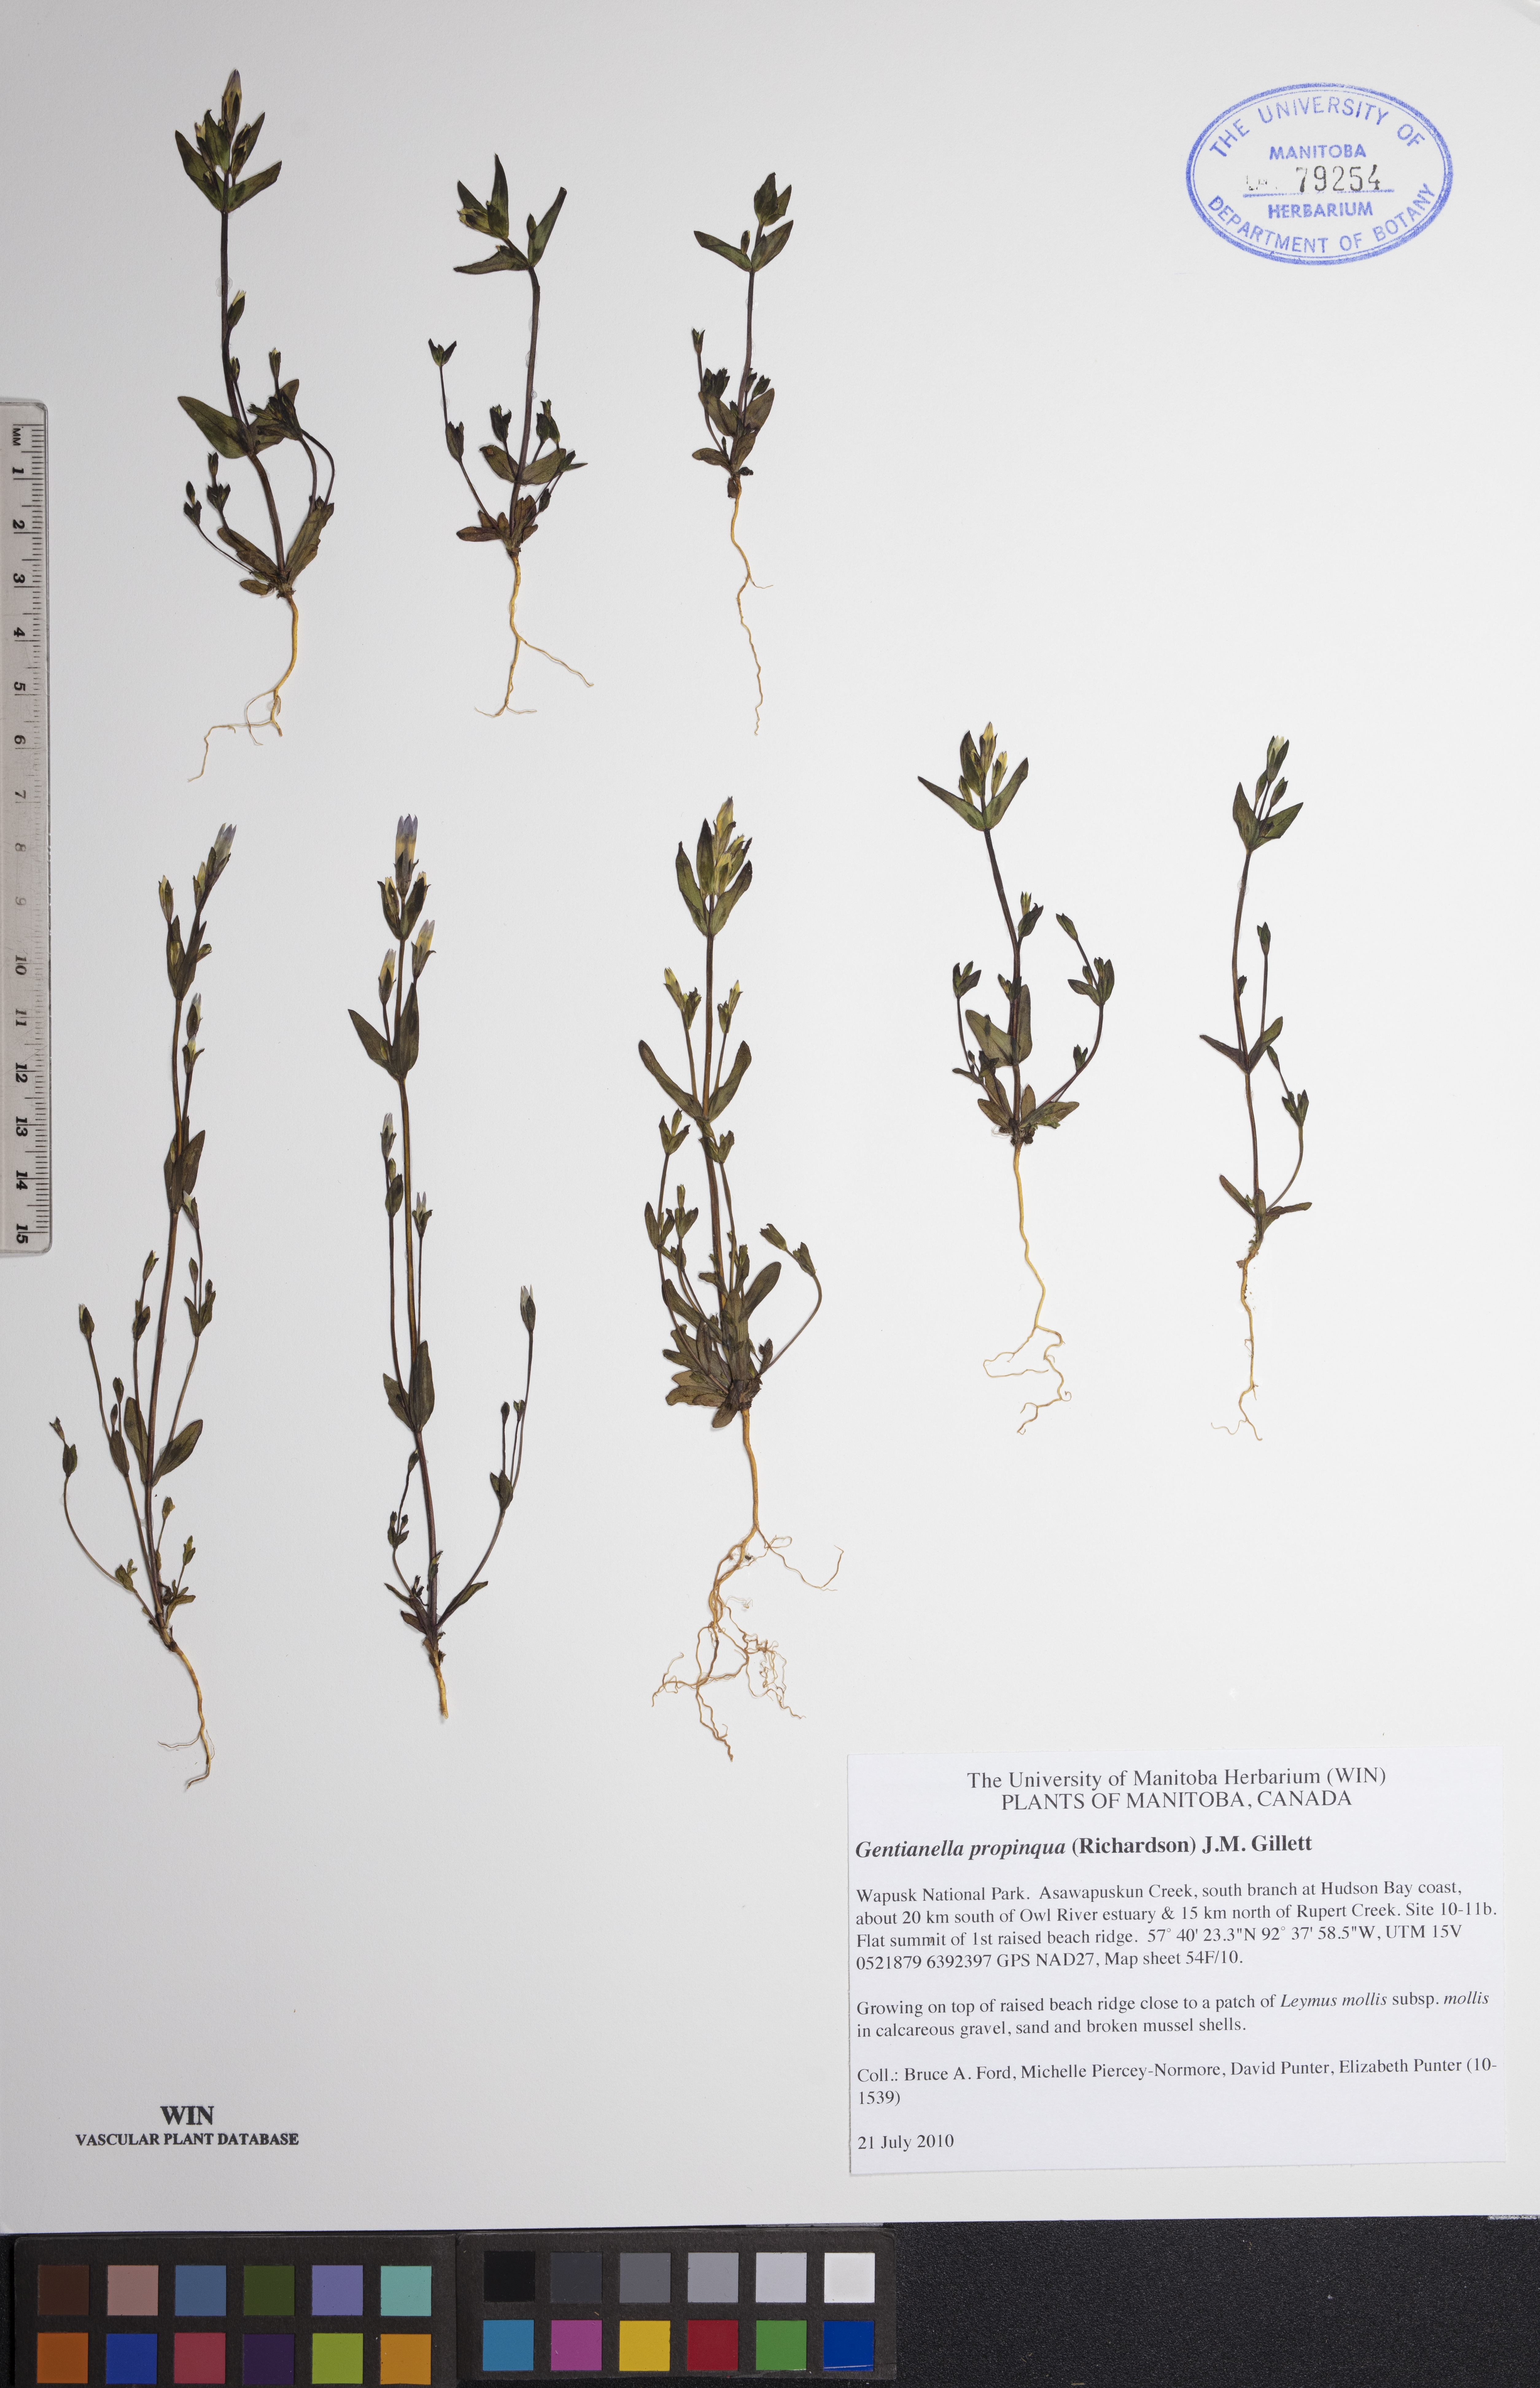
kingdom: Plantae
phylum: Tracheophyta
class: Magnoliopsida
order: Gentianales
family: Gentianaceae
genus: Gentianella
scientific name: Gentianella propinqua
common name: Four-parted dwarf-gentian
